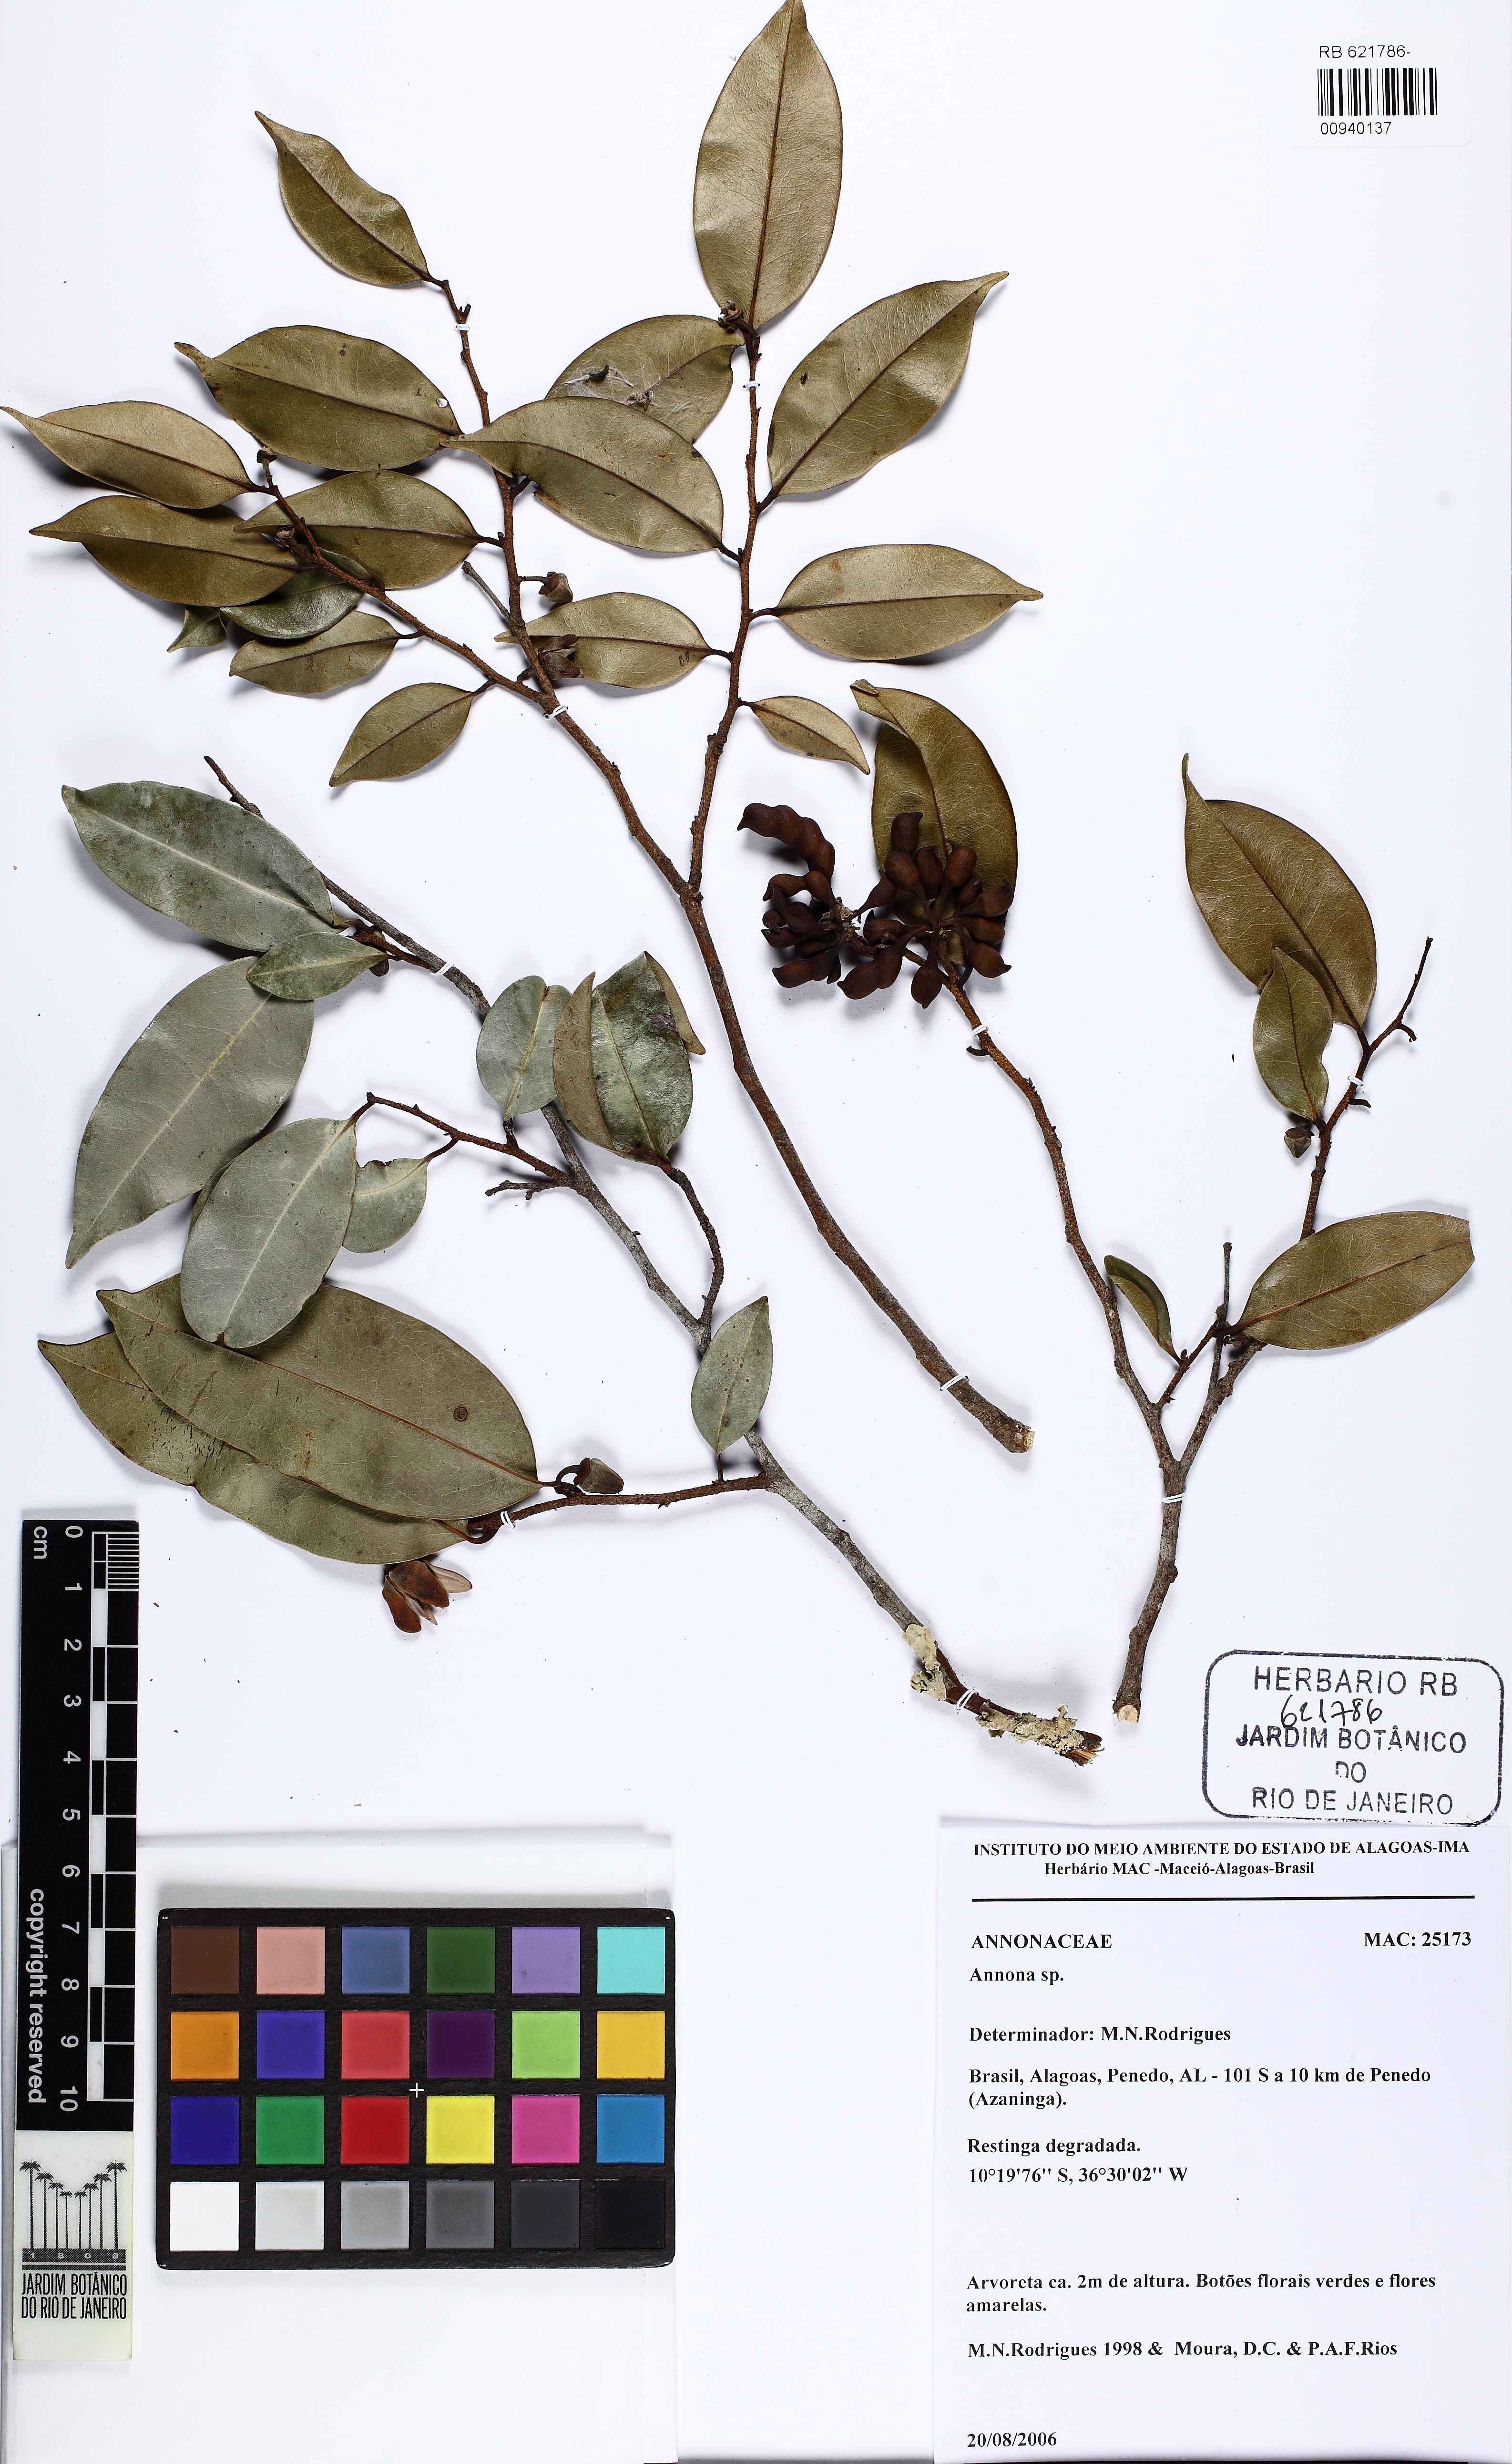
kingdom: Plantae
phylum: Tracheophyta
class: Magnoliopsida
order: Magnoliales
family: Annonaceae
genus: Xylopia
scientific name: Xylopia laevigata
